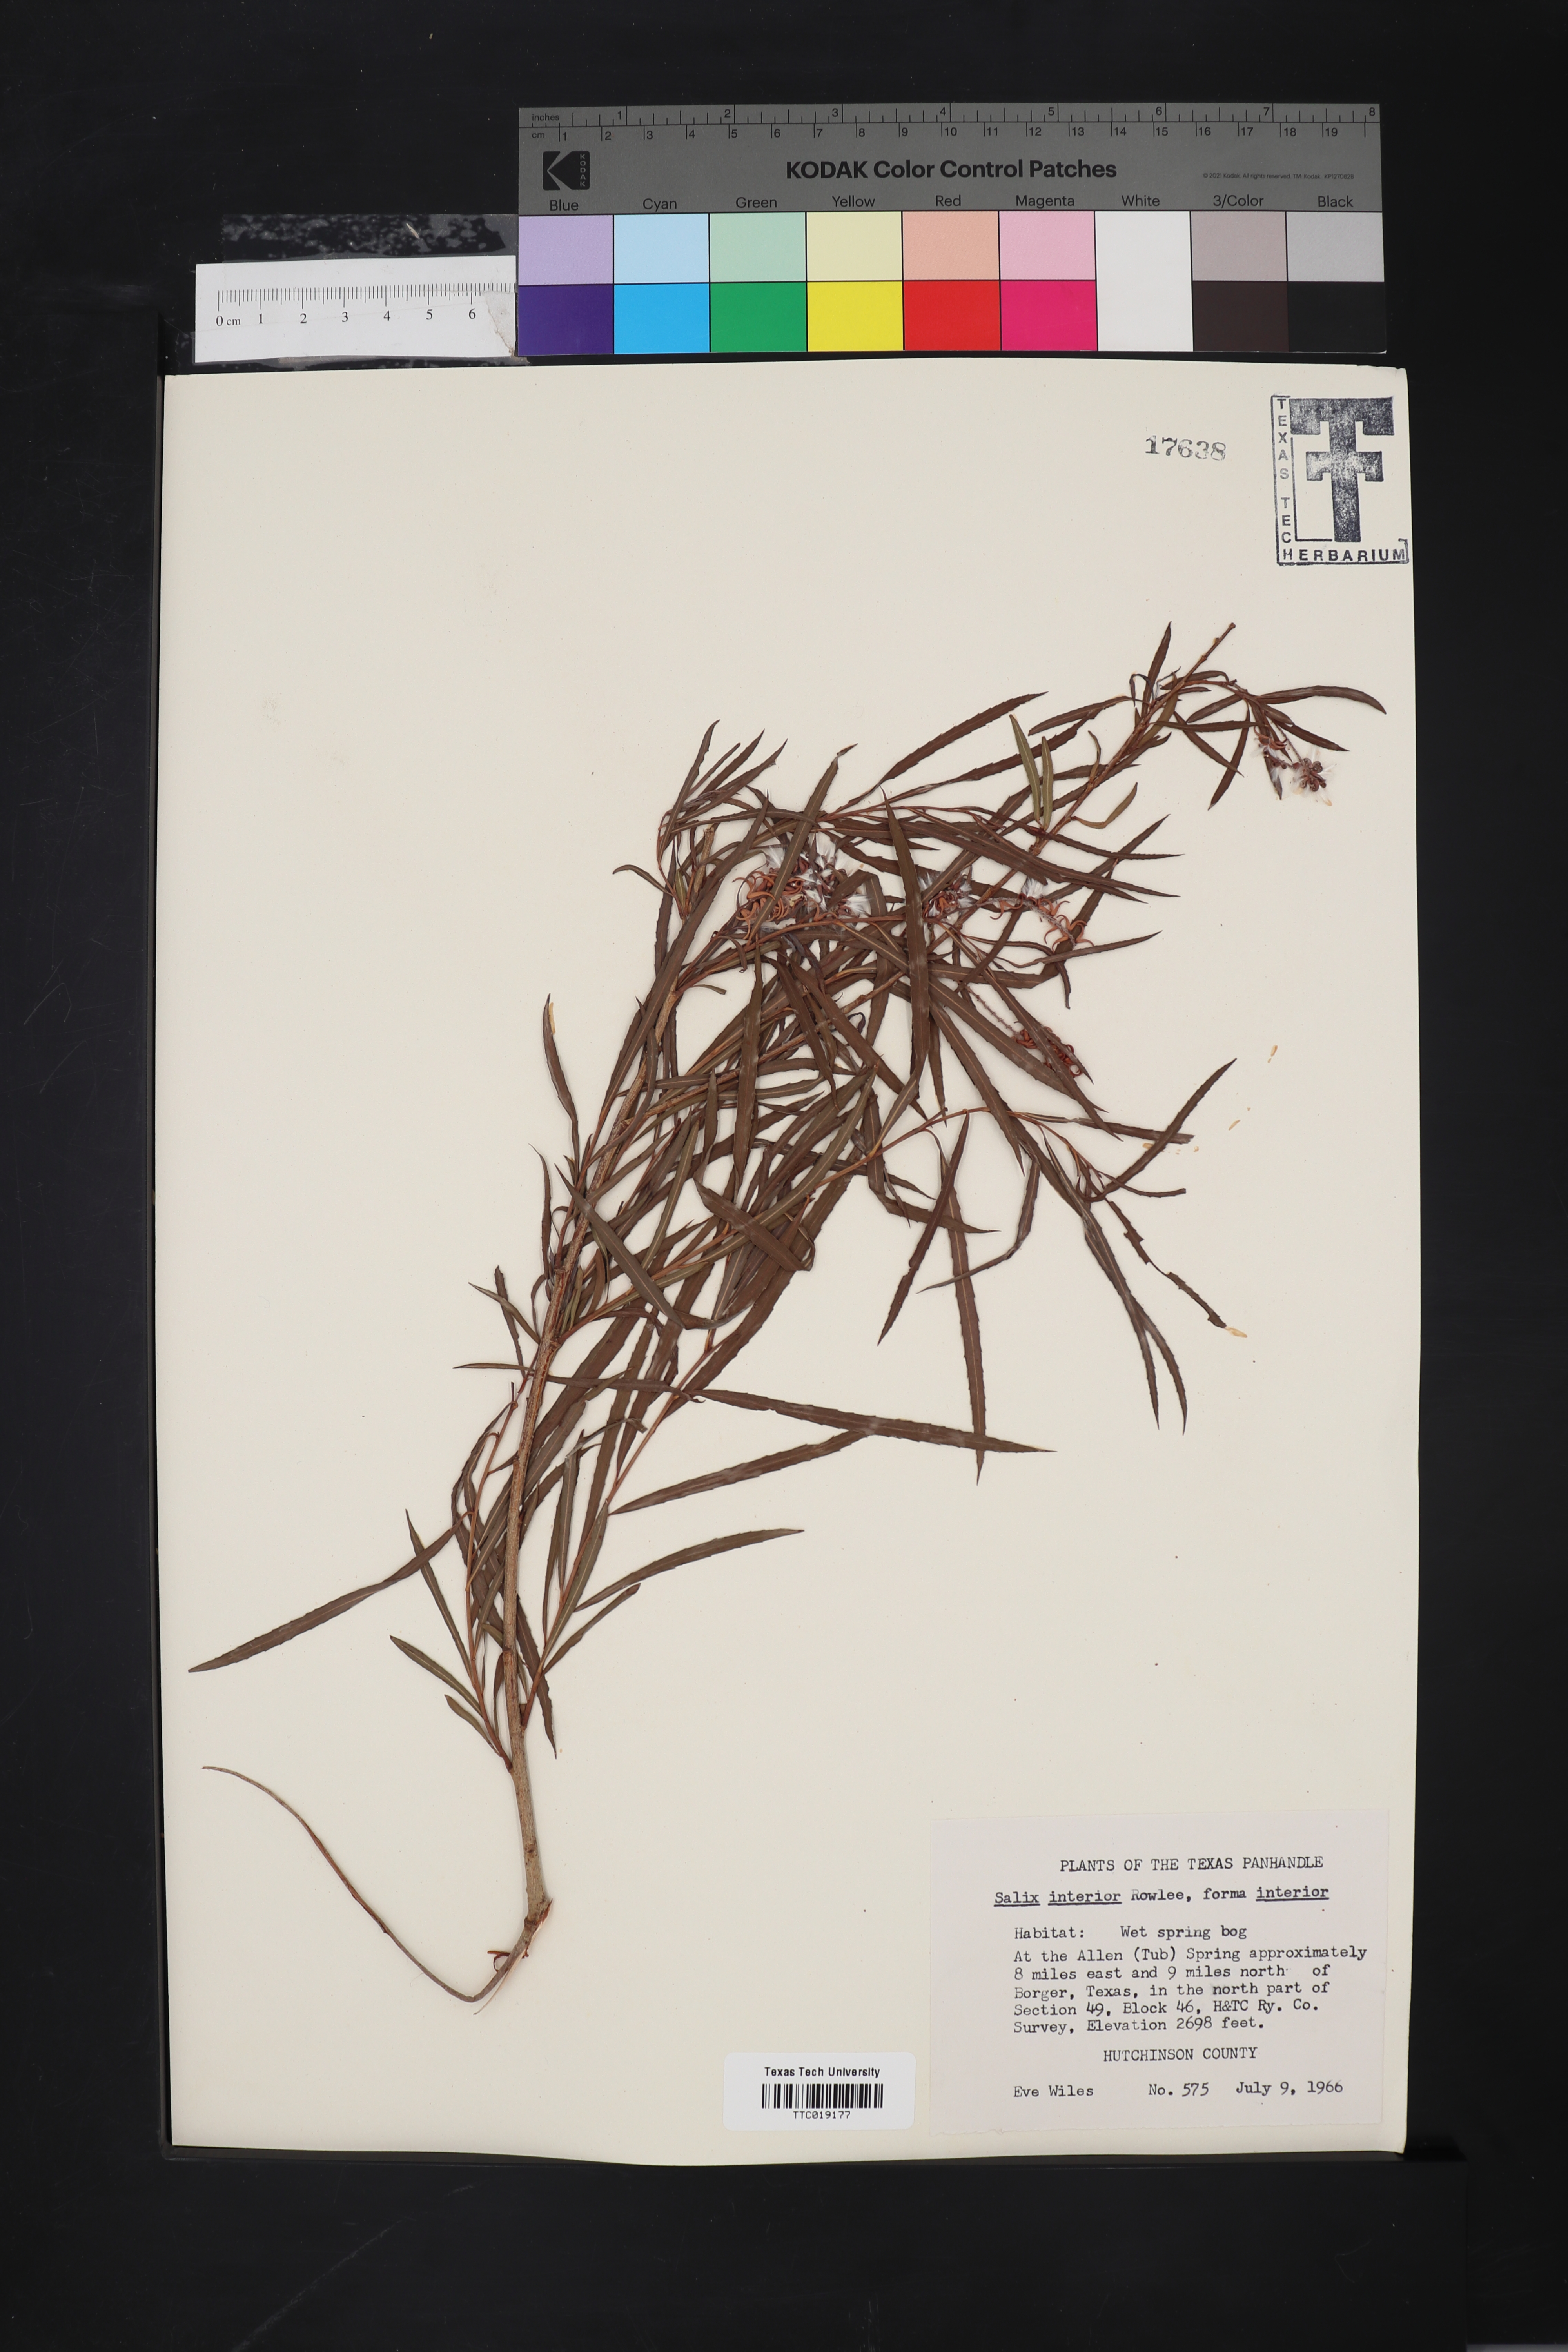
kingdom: Plantae
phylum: Tracheophyta
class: Magnoliopsida
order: Malpighiales
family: Salicaceae
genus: Salix
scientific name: Salix interior
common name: Sandbar willow
